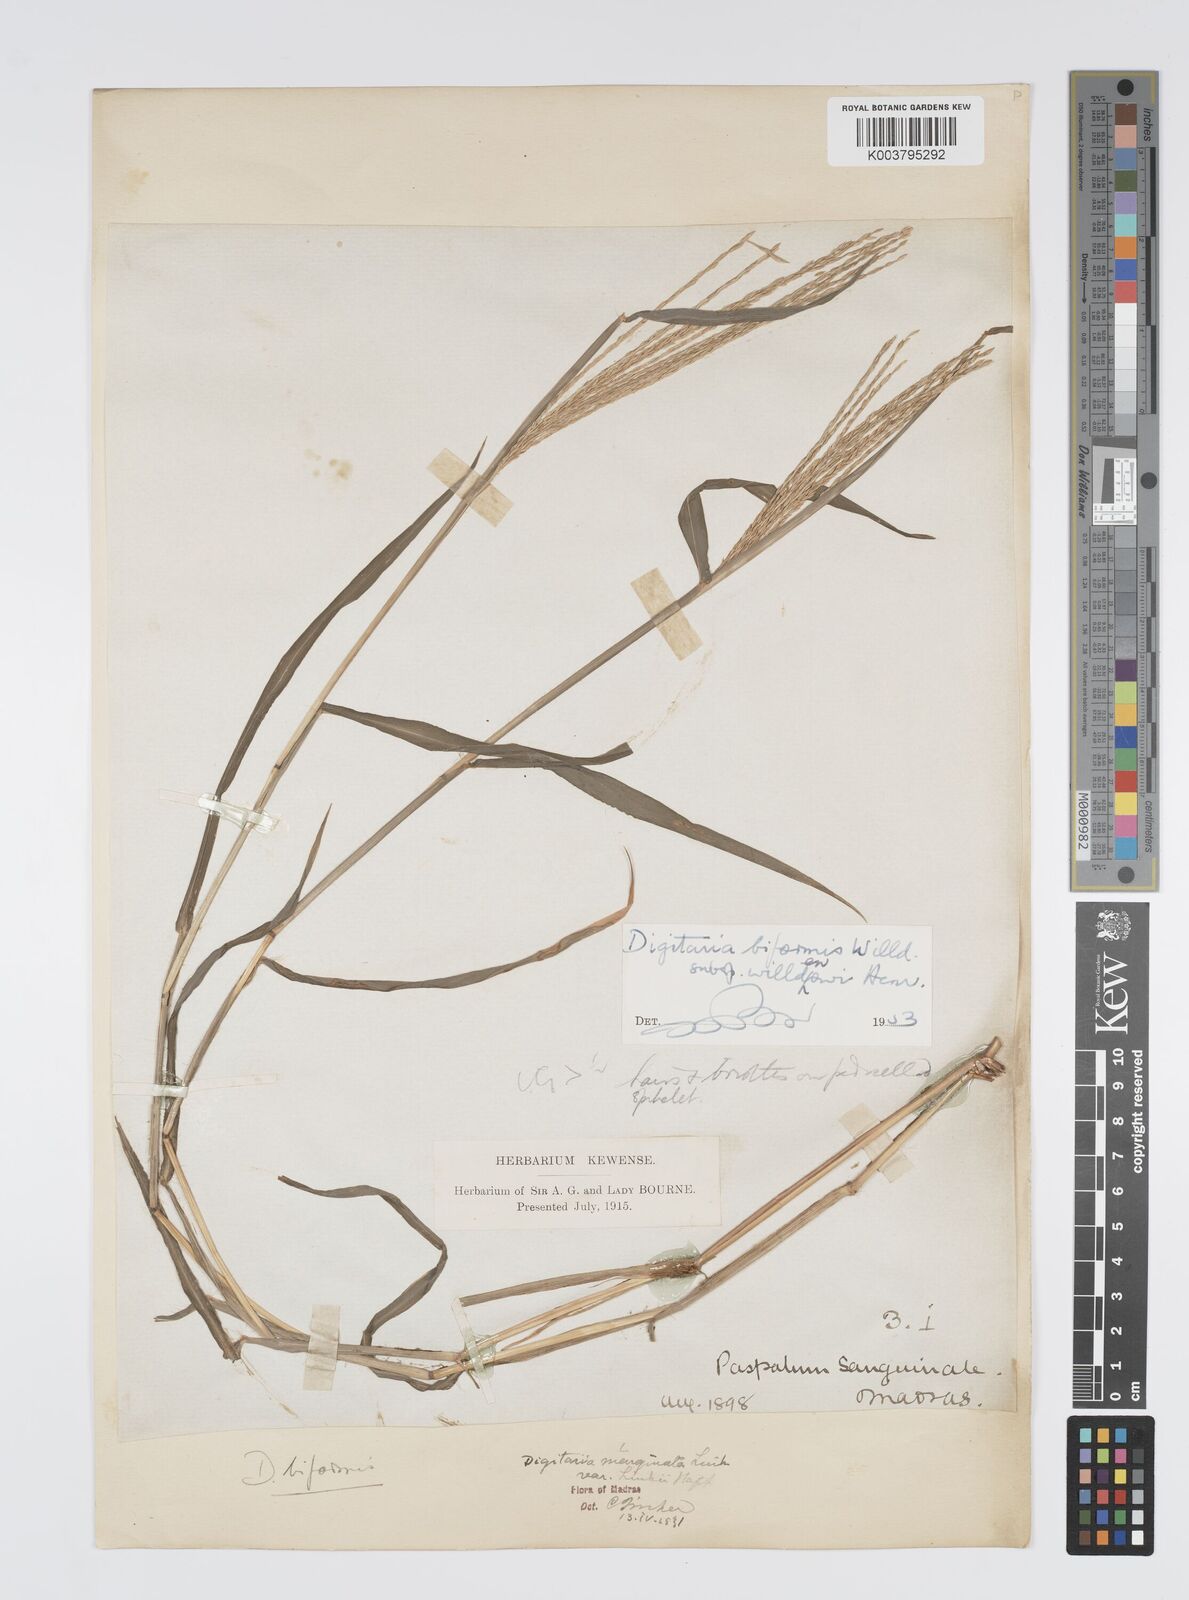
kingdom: Plantae
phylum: Tracheophyta
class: Liliopsida
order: Poales
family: Poaceae
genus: Digitaria
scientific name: Digitaria spec
